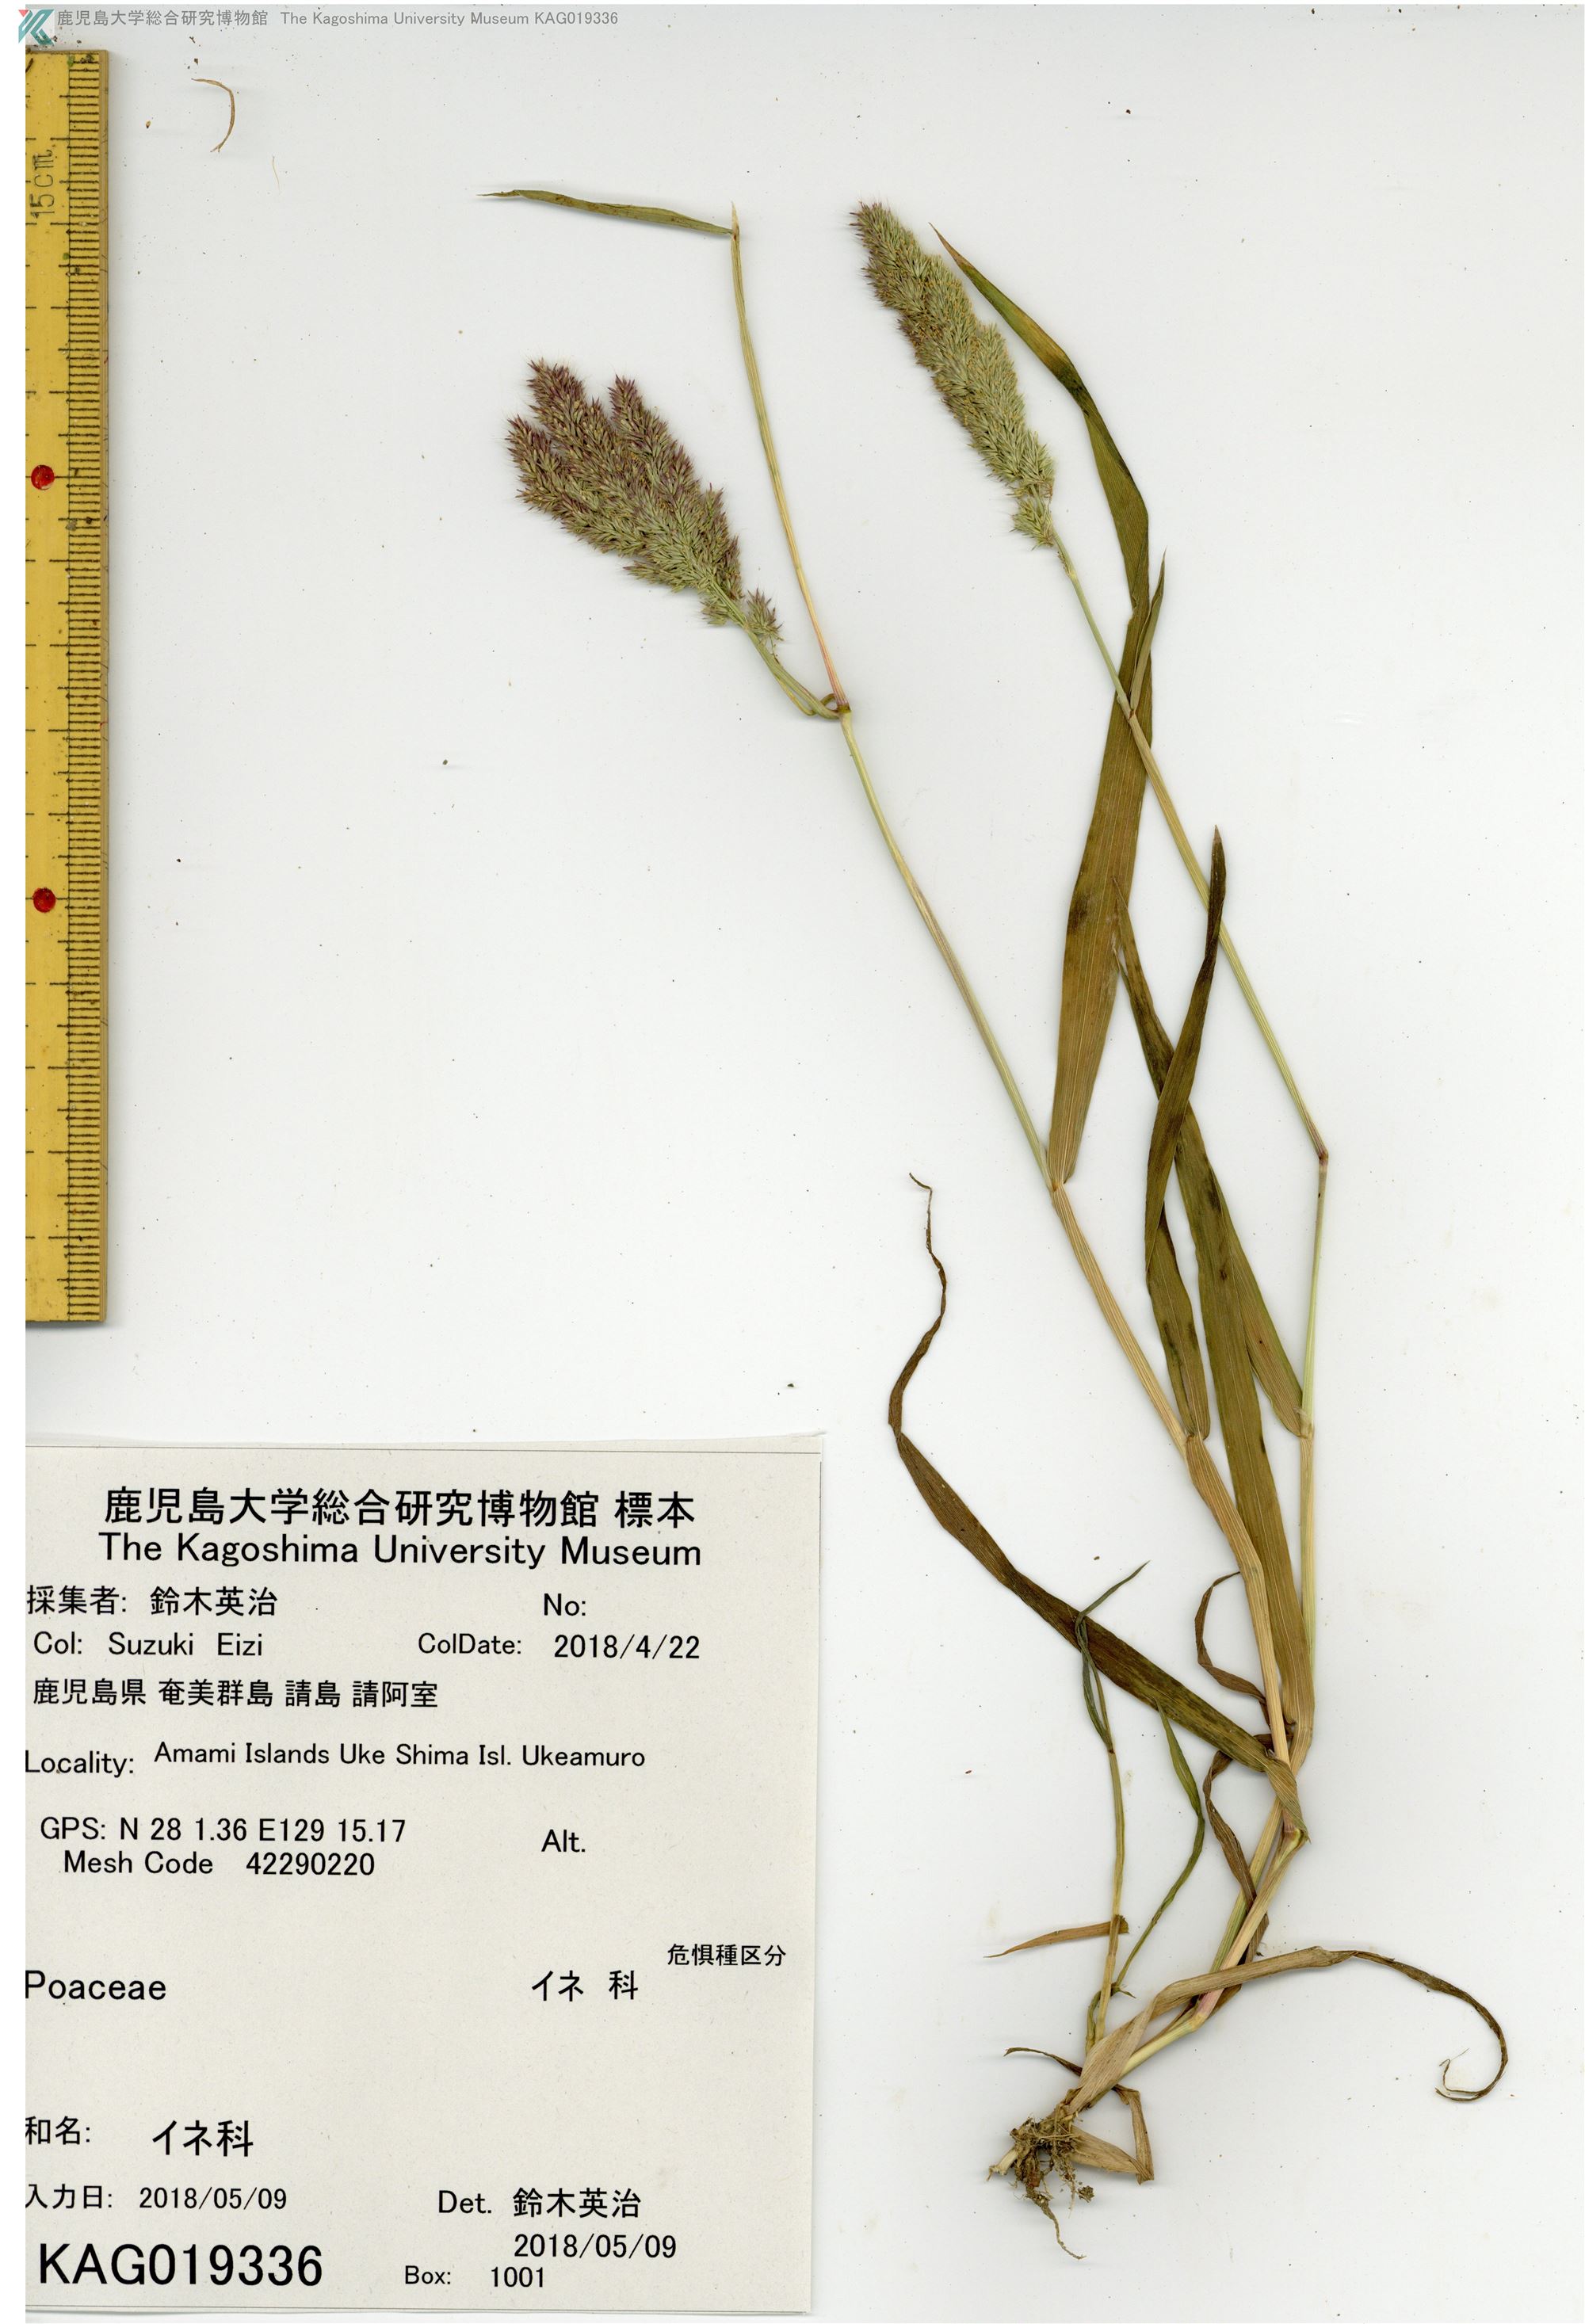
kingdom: Plantae
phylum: Tracheophyta
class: Liliopsida
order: Poales
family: Poaceae
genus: Polypogon
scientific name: Polypogon fugax
